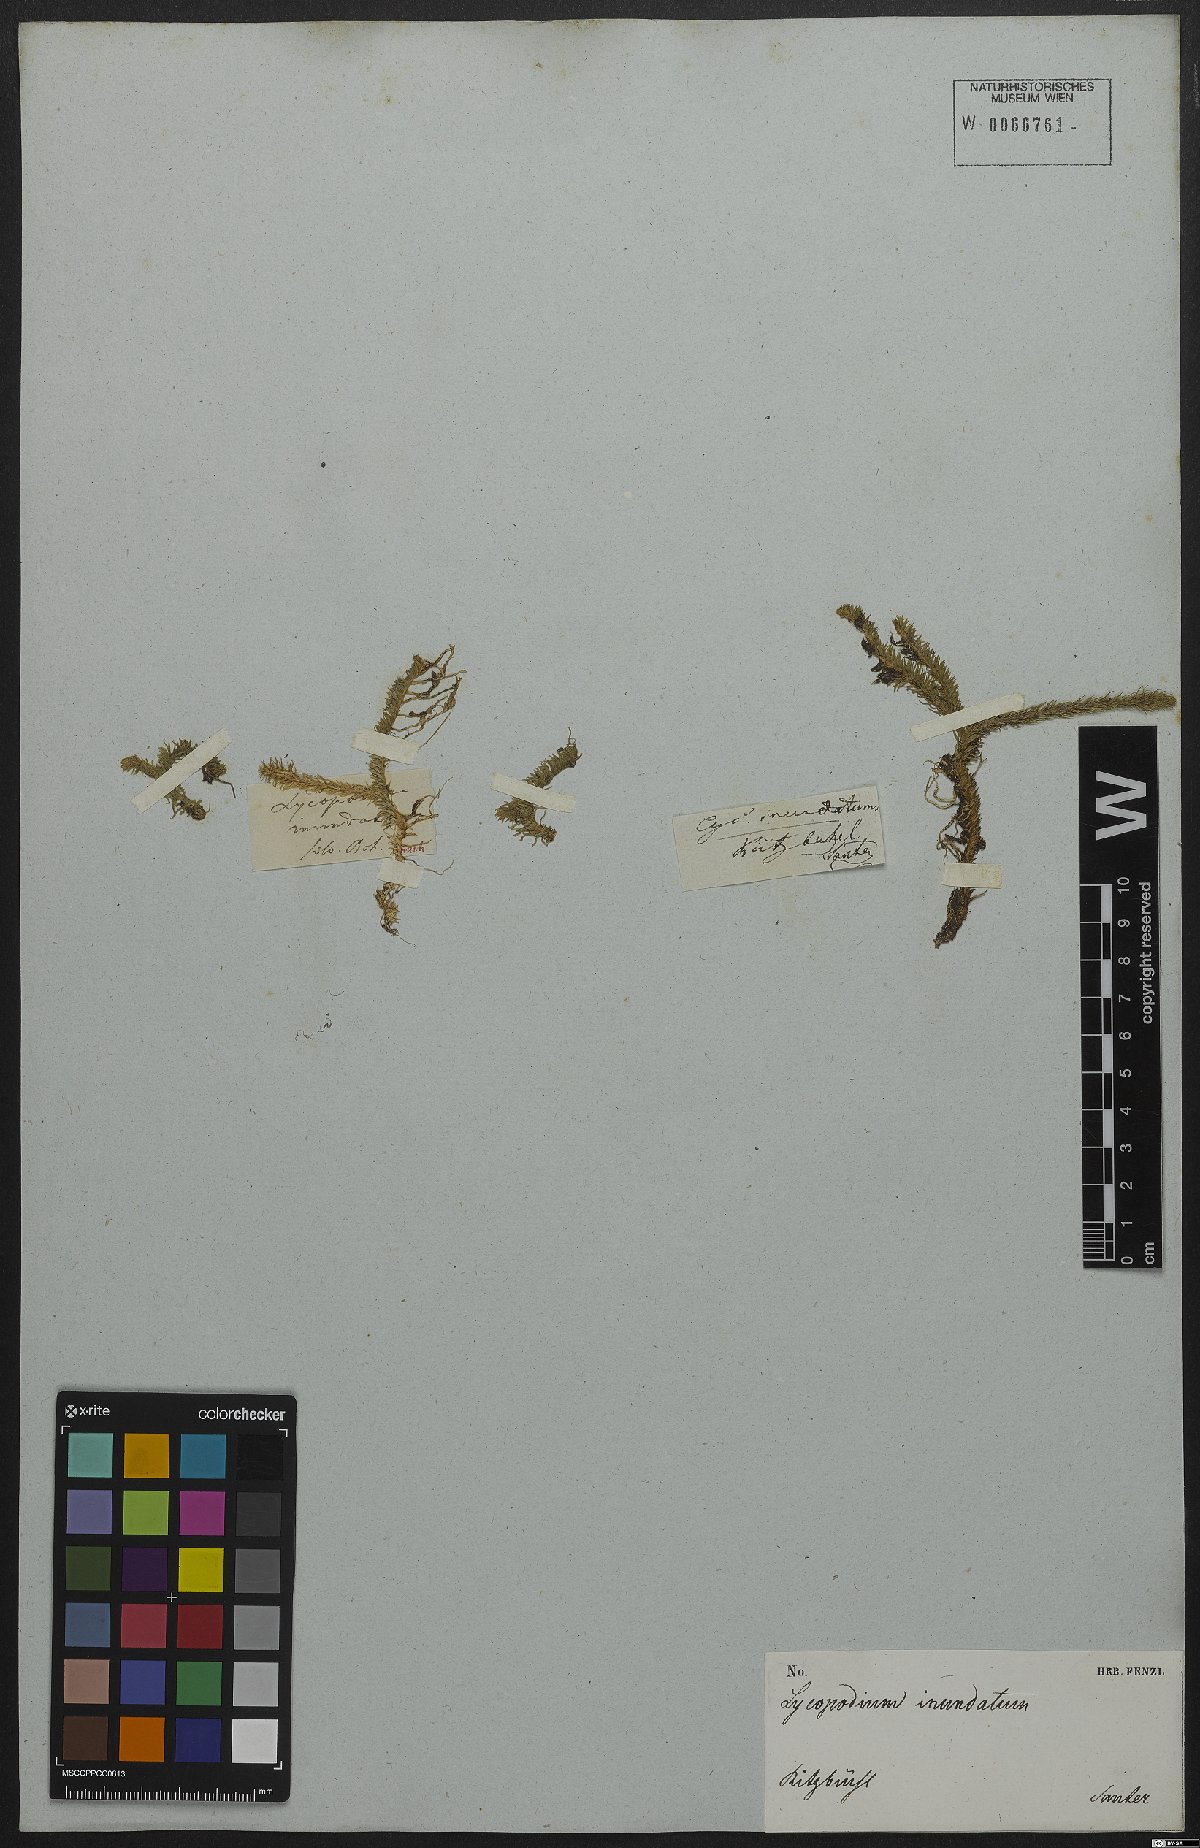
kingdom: Plantae
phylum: Tracheophyta
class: Lycopodiopsida
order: Lycopodiales
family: Lycopodiaceae
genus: Lycopodiella
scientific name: Lycopodiella inundata
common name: Marsh clubmoss
